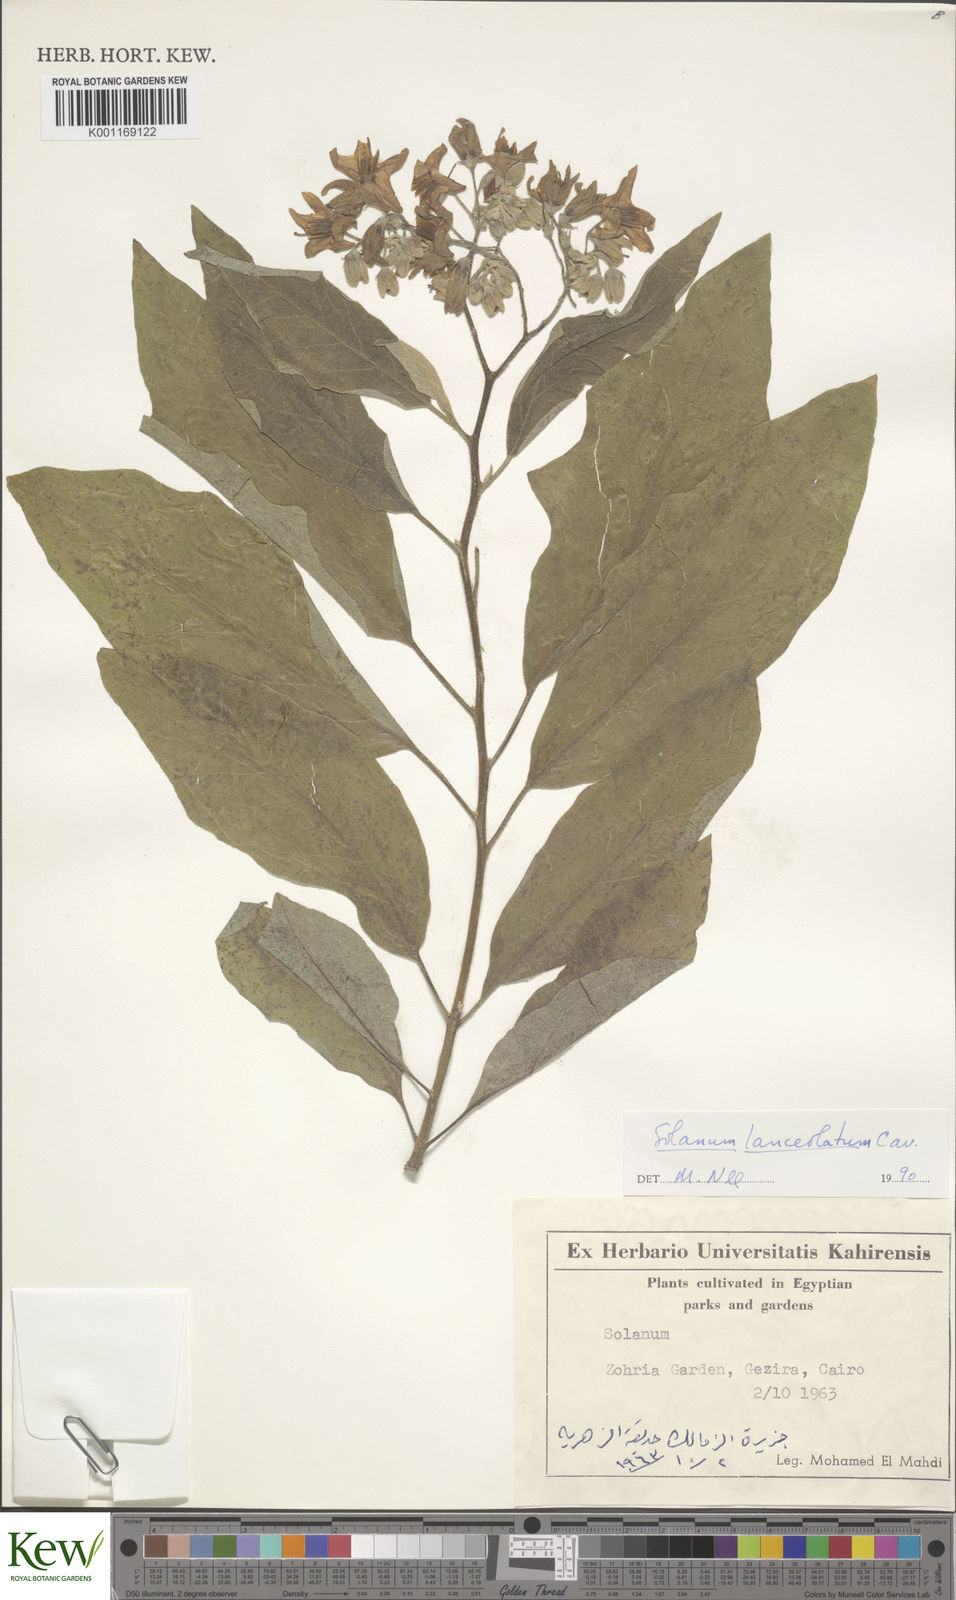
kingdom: Plantae
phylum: Tracheophyta
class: Magnoliopsida
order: Solanales
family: Solanaceae
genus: Solanum
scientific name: Solanum lanceolatum
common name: Orangeberry nightshade
